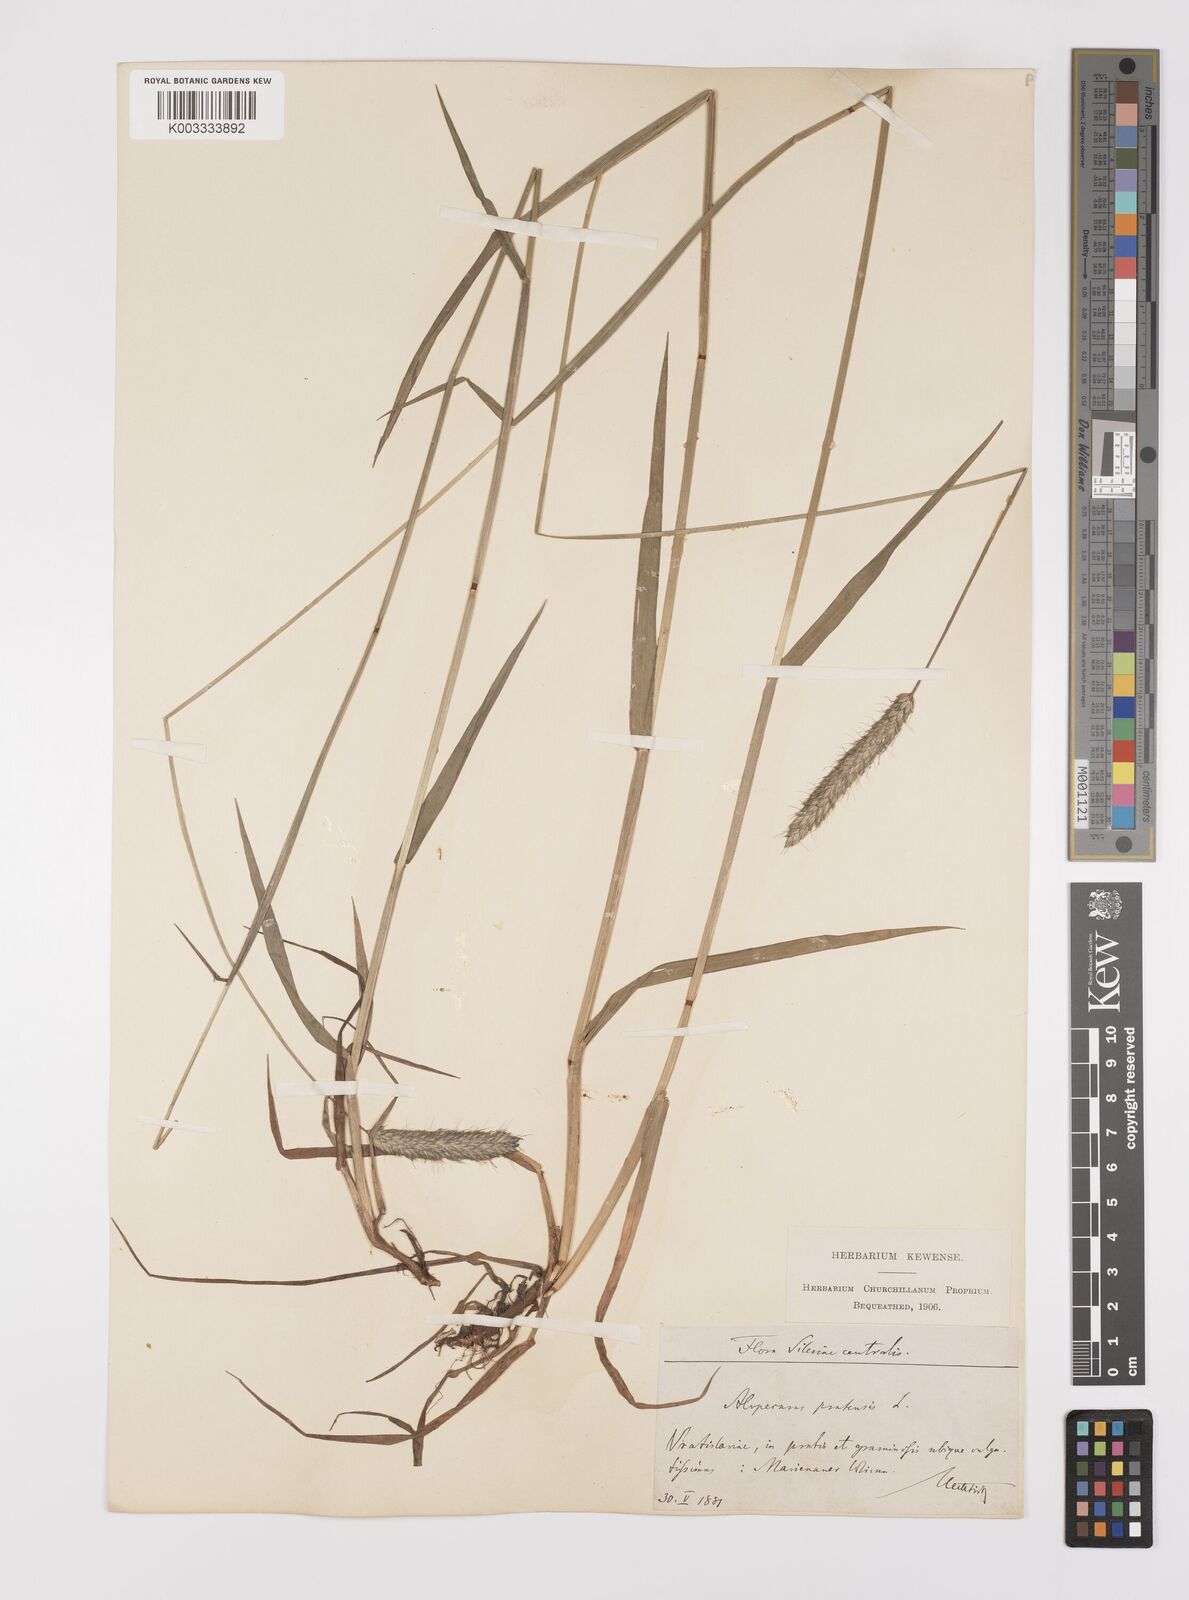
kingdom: Plantae
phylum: Tracheophyta
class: Liliopsida
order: Poales
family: Poaceae
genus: Alopecurus
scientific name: Alopecurus pratensis
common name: Meadow foxtail
